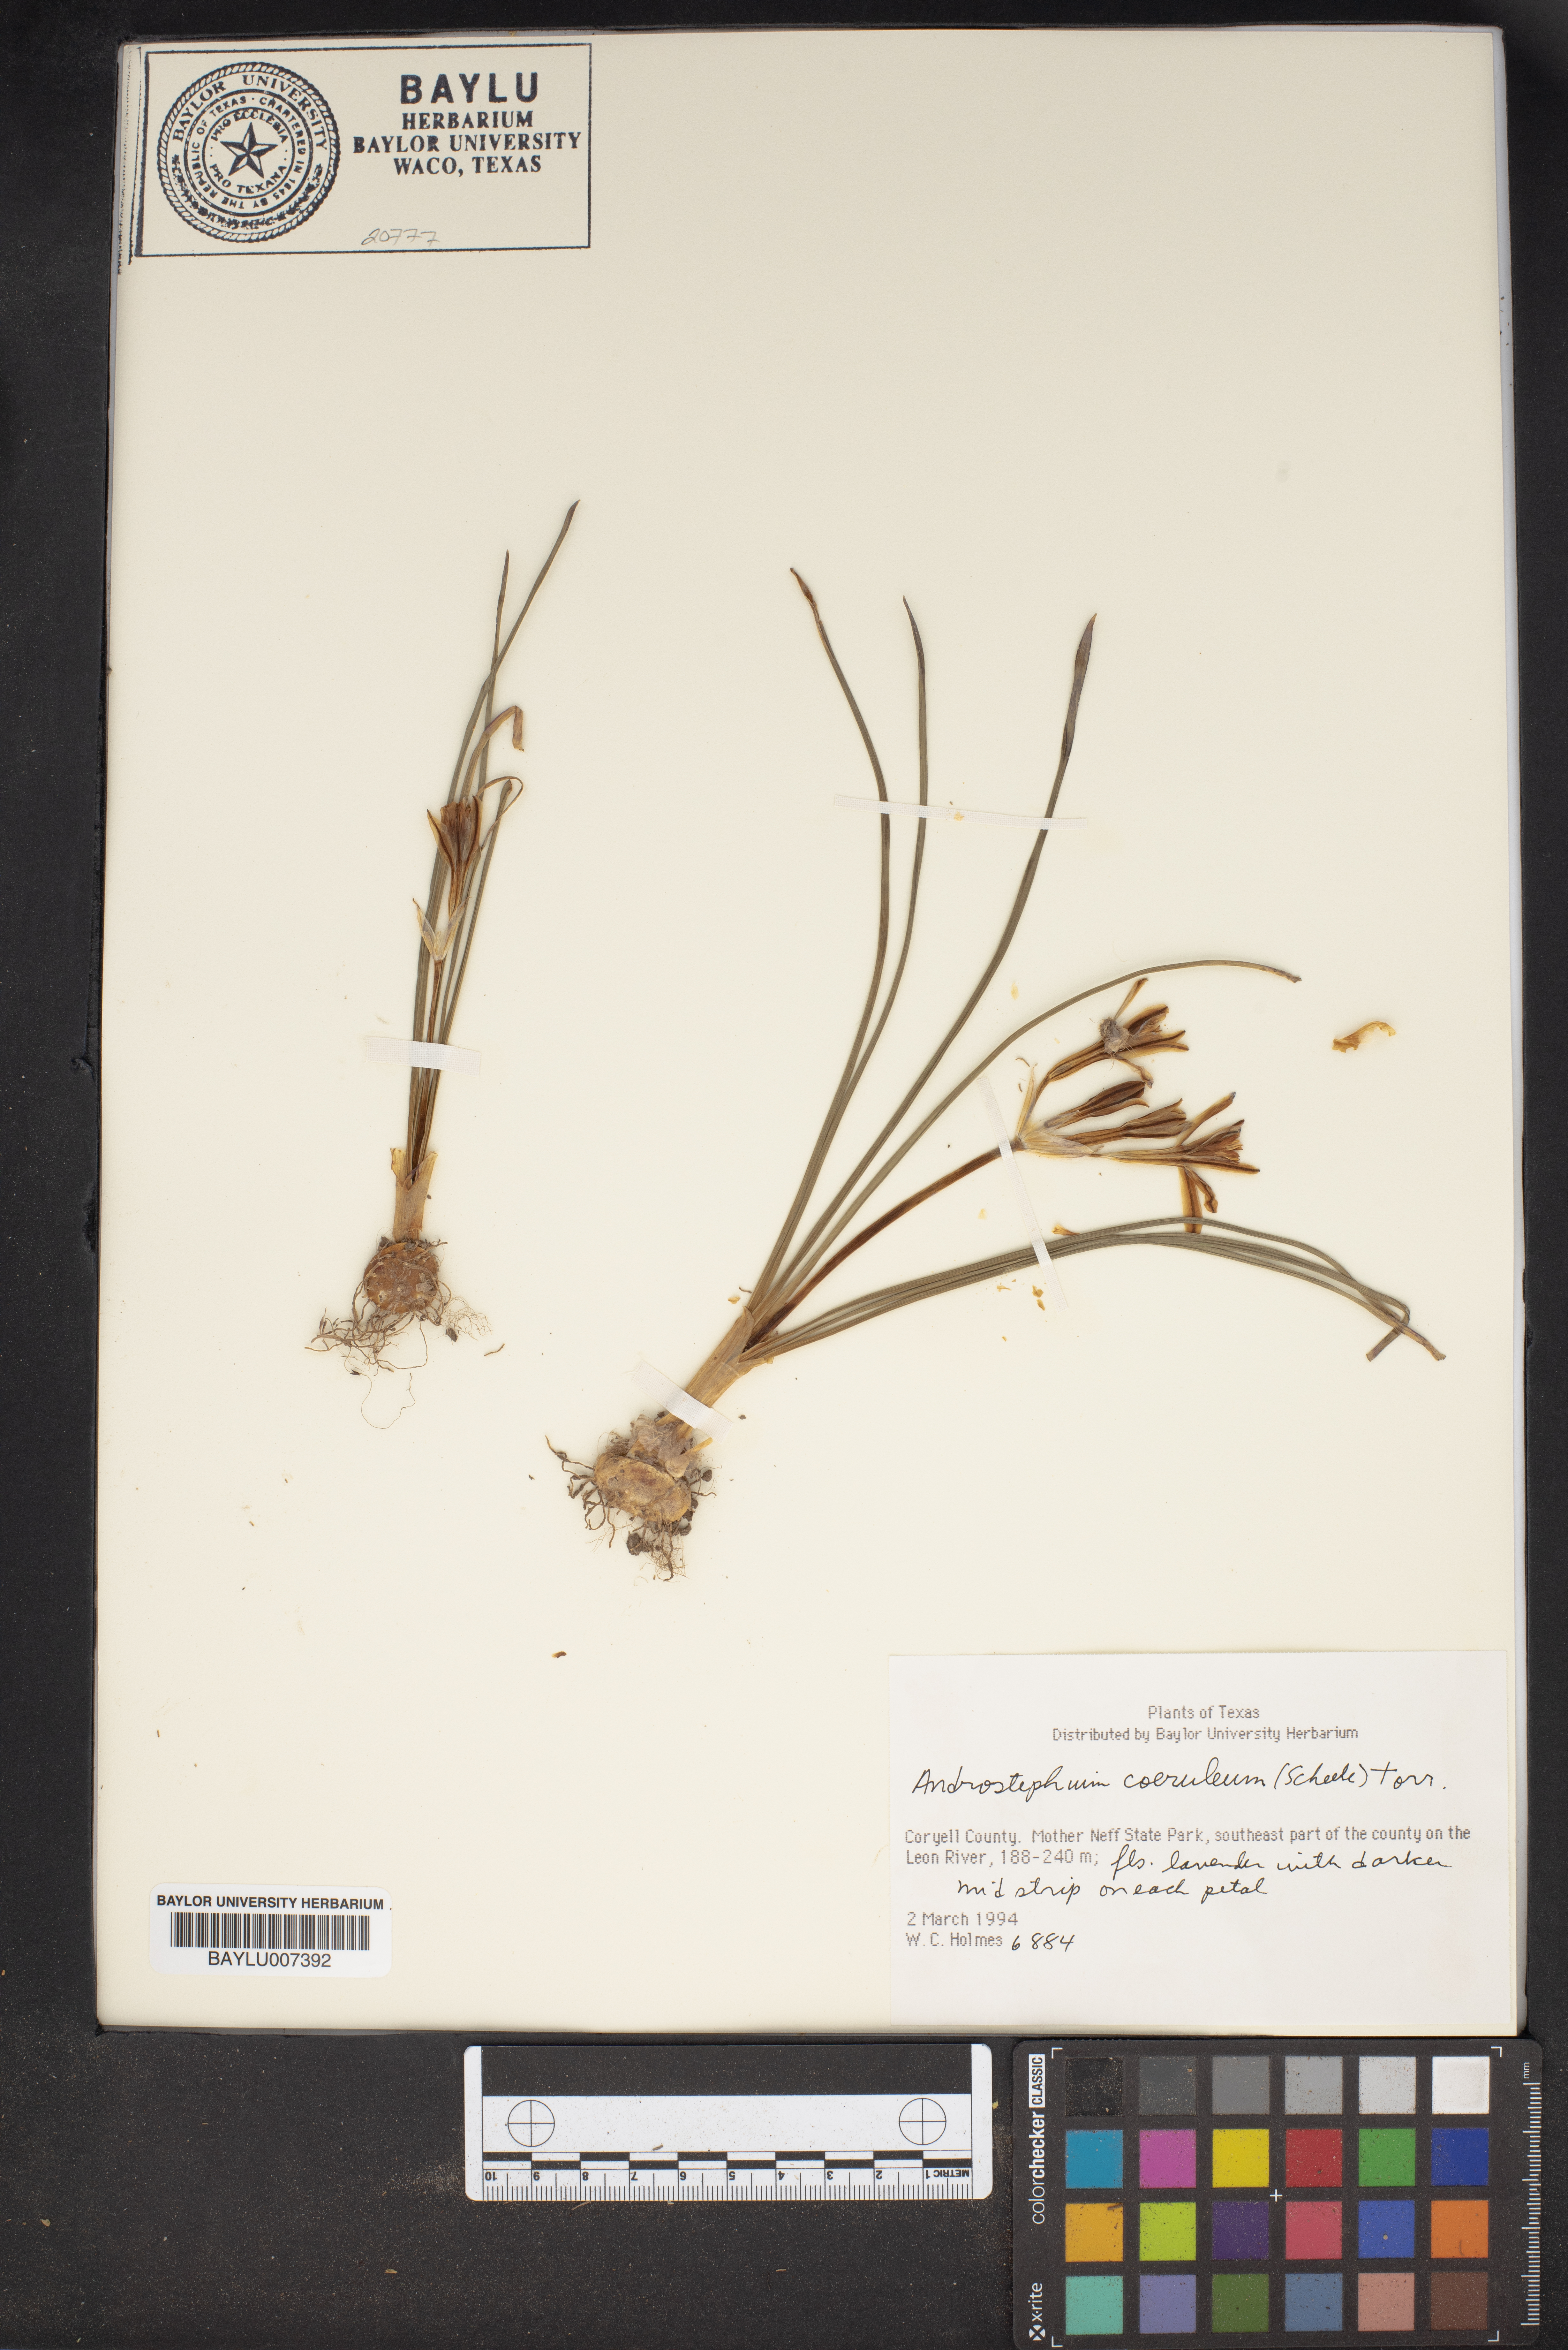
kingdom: Plantae
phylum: Tracheophyta
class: Liliopsida
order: Asparagales
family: Asparagaceae
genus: Androstephium
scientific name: Androstephium coeruleum
